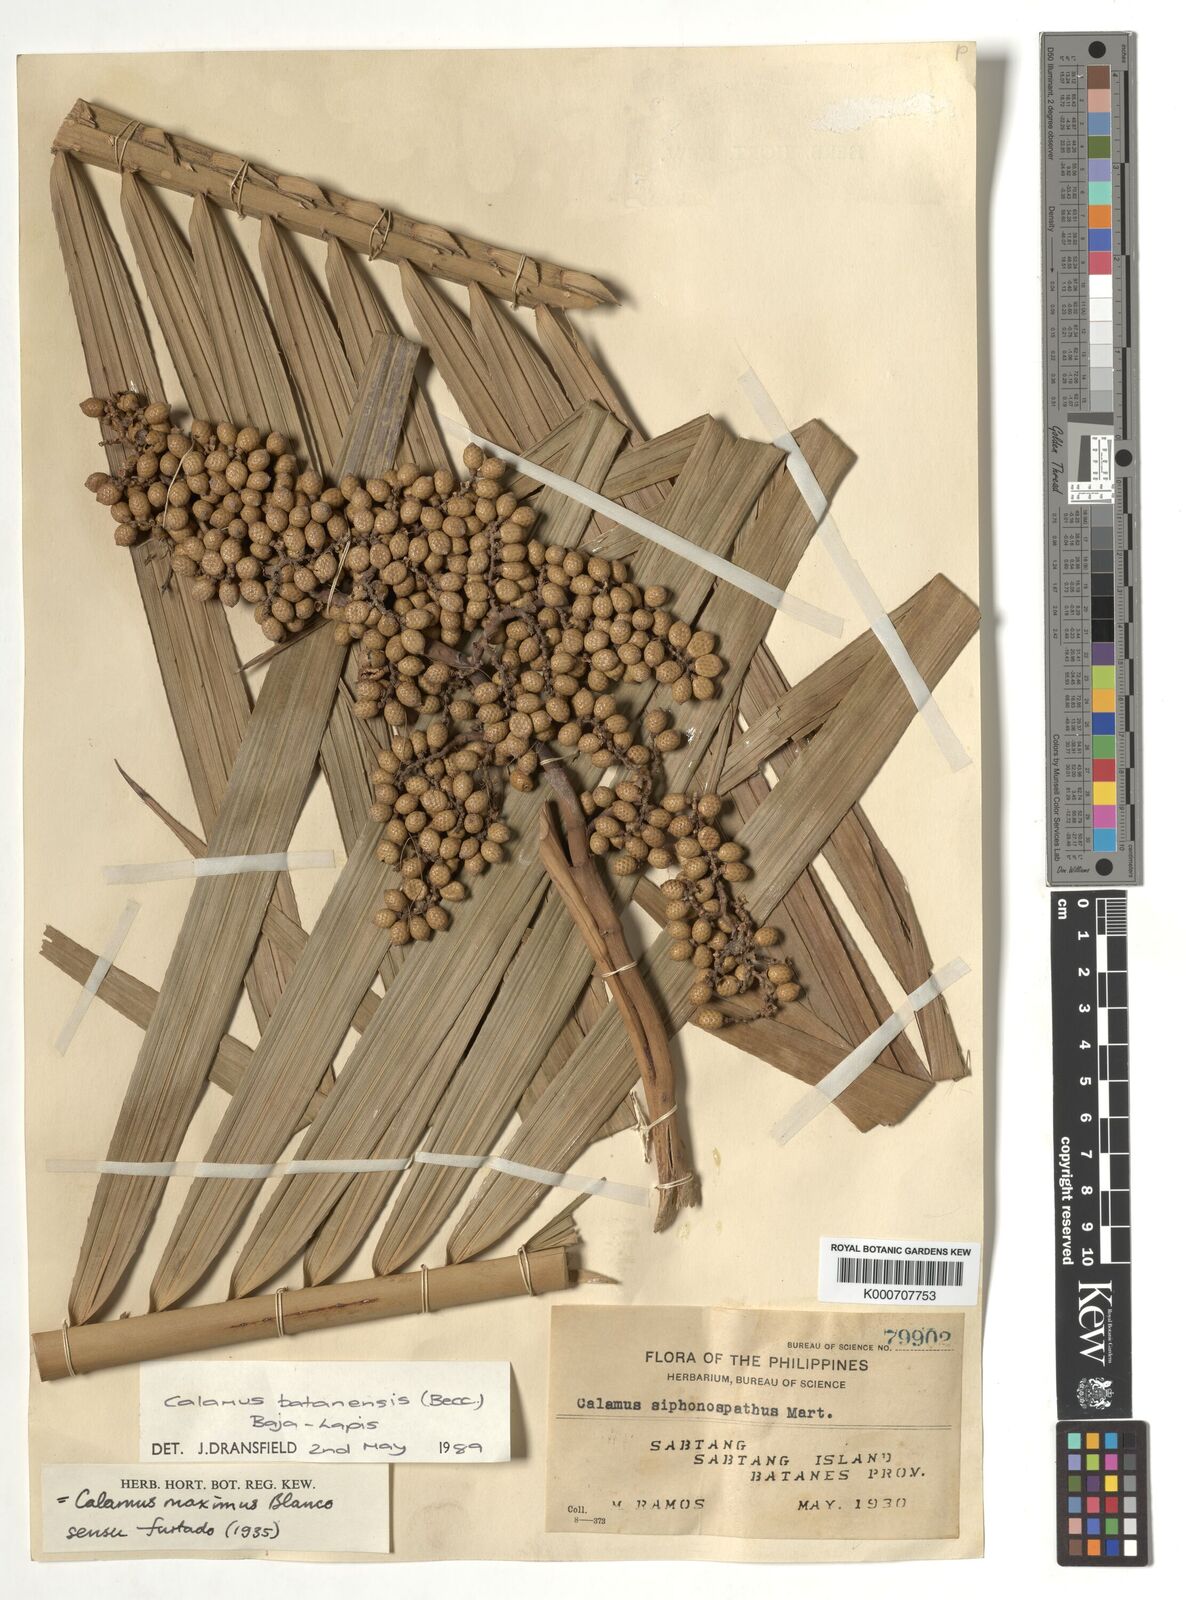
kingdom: Plantae
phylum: Tracheophyta
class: Liliopsida
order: Arecales
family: Arecaceae
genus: Calamus
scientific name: Calamus batanensis
